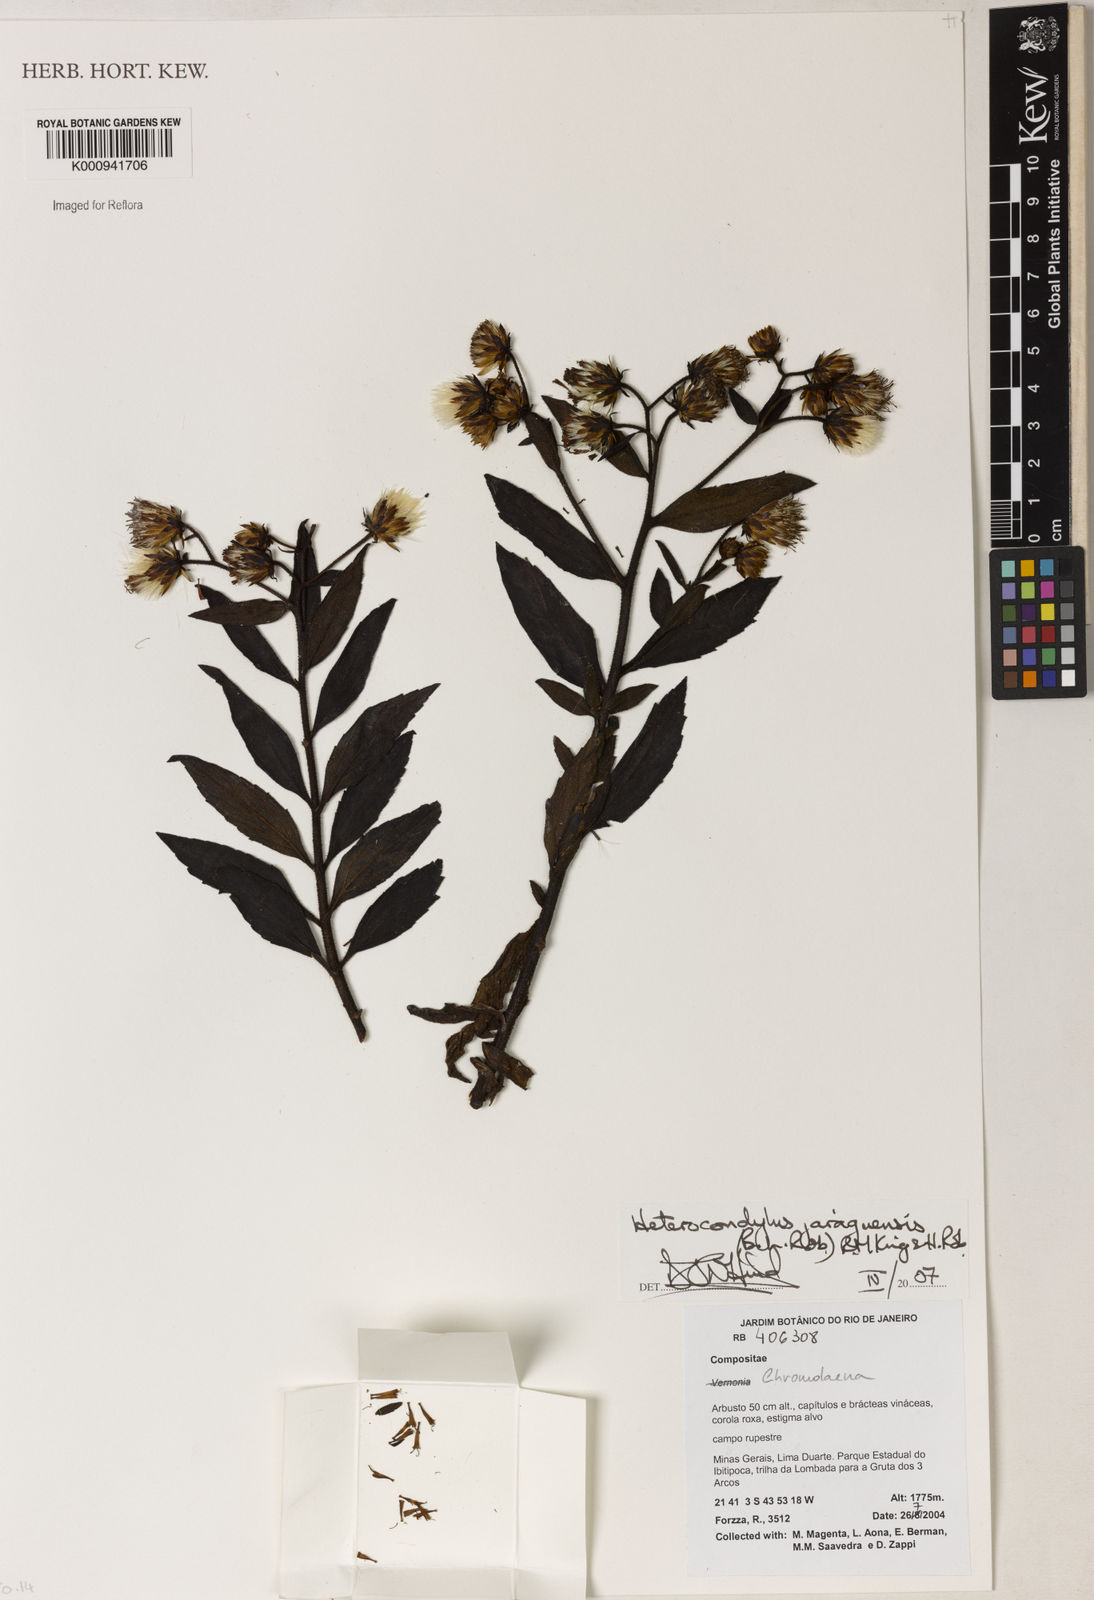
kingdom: Plantae
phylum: Tracheophyta
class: Magnoliopsida
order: Asterales
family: Asteraceae
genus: Heterocondylus
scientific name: Heterocondylus jaraguensis
